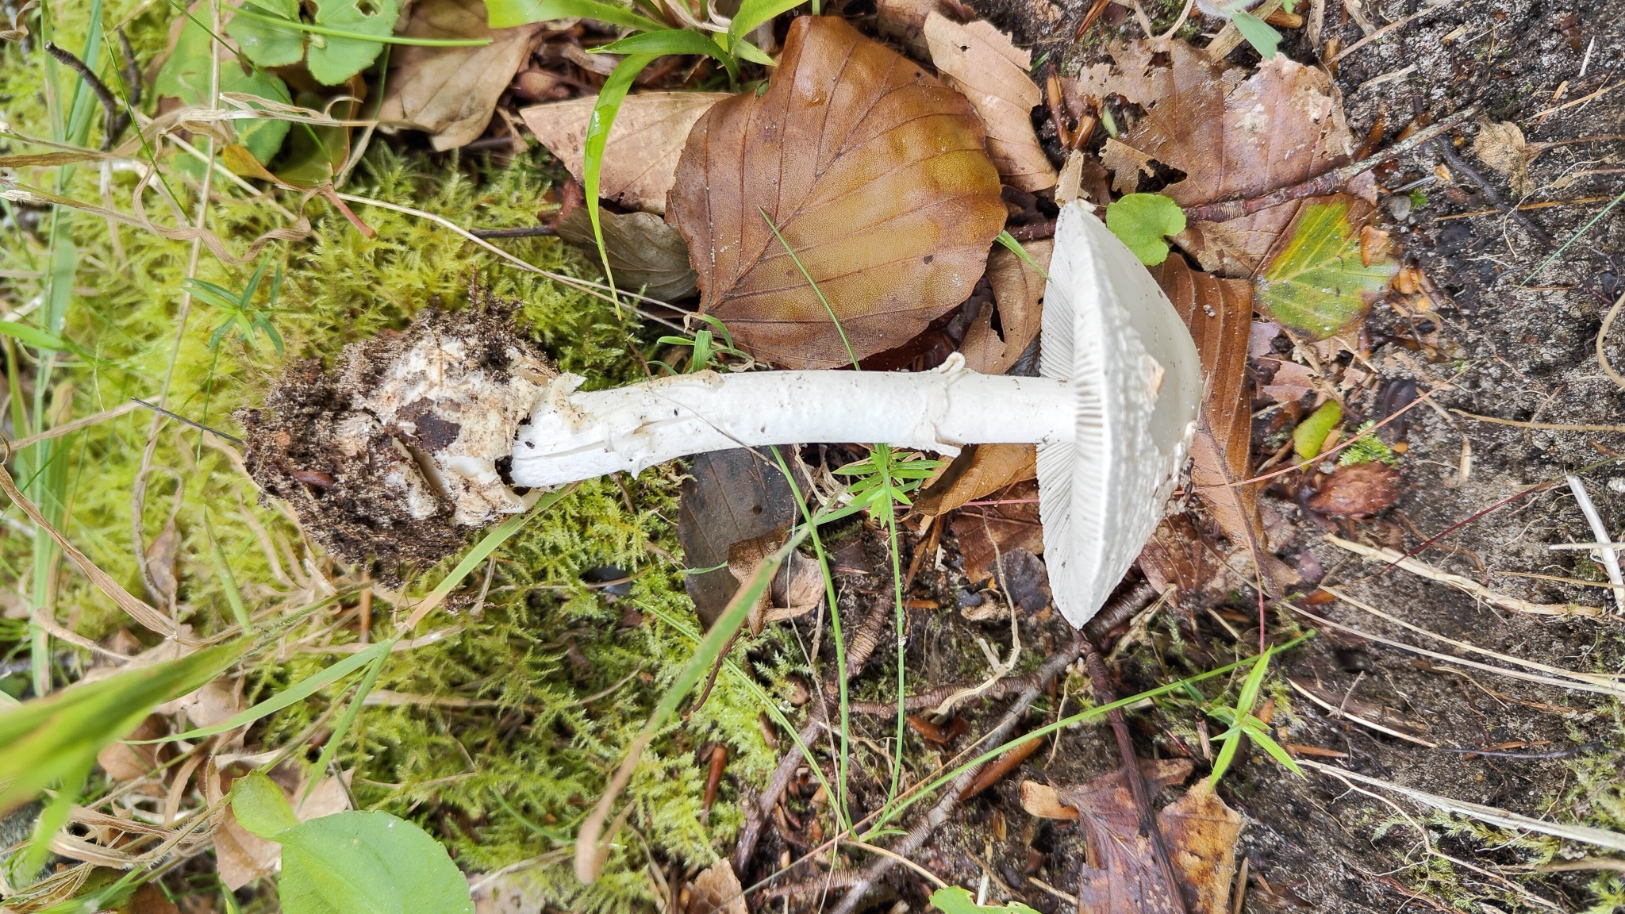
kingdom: Fungi
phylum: Basidiomycota
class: Agaricomycetes
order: Agaricales
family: Amanitaceae
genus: Amanita
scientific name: Amanita citrina
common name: kugleknoldet fluesvamp
